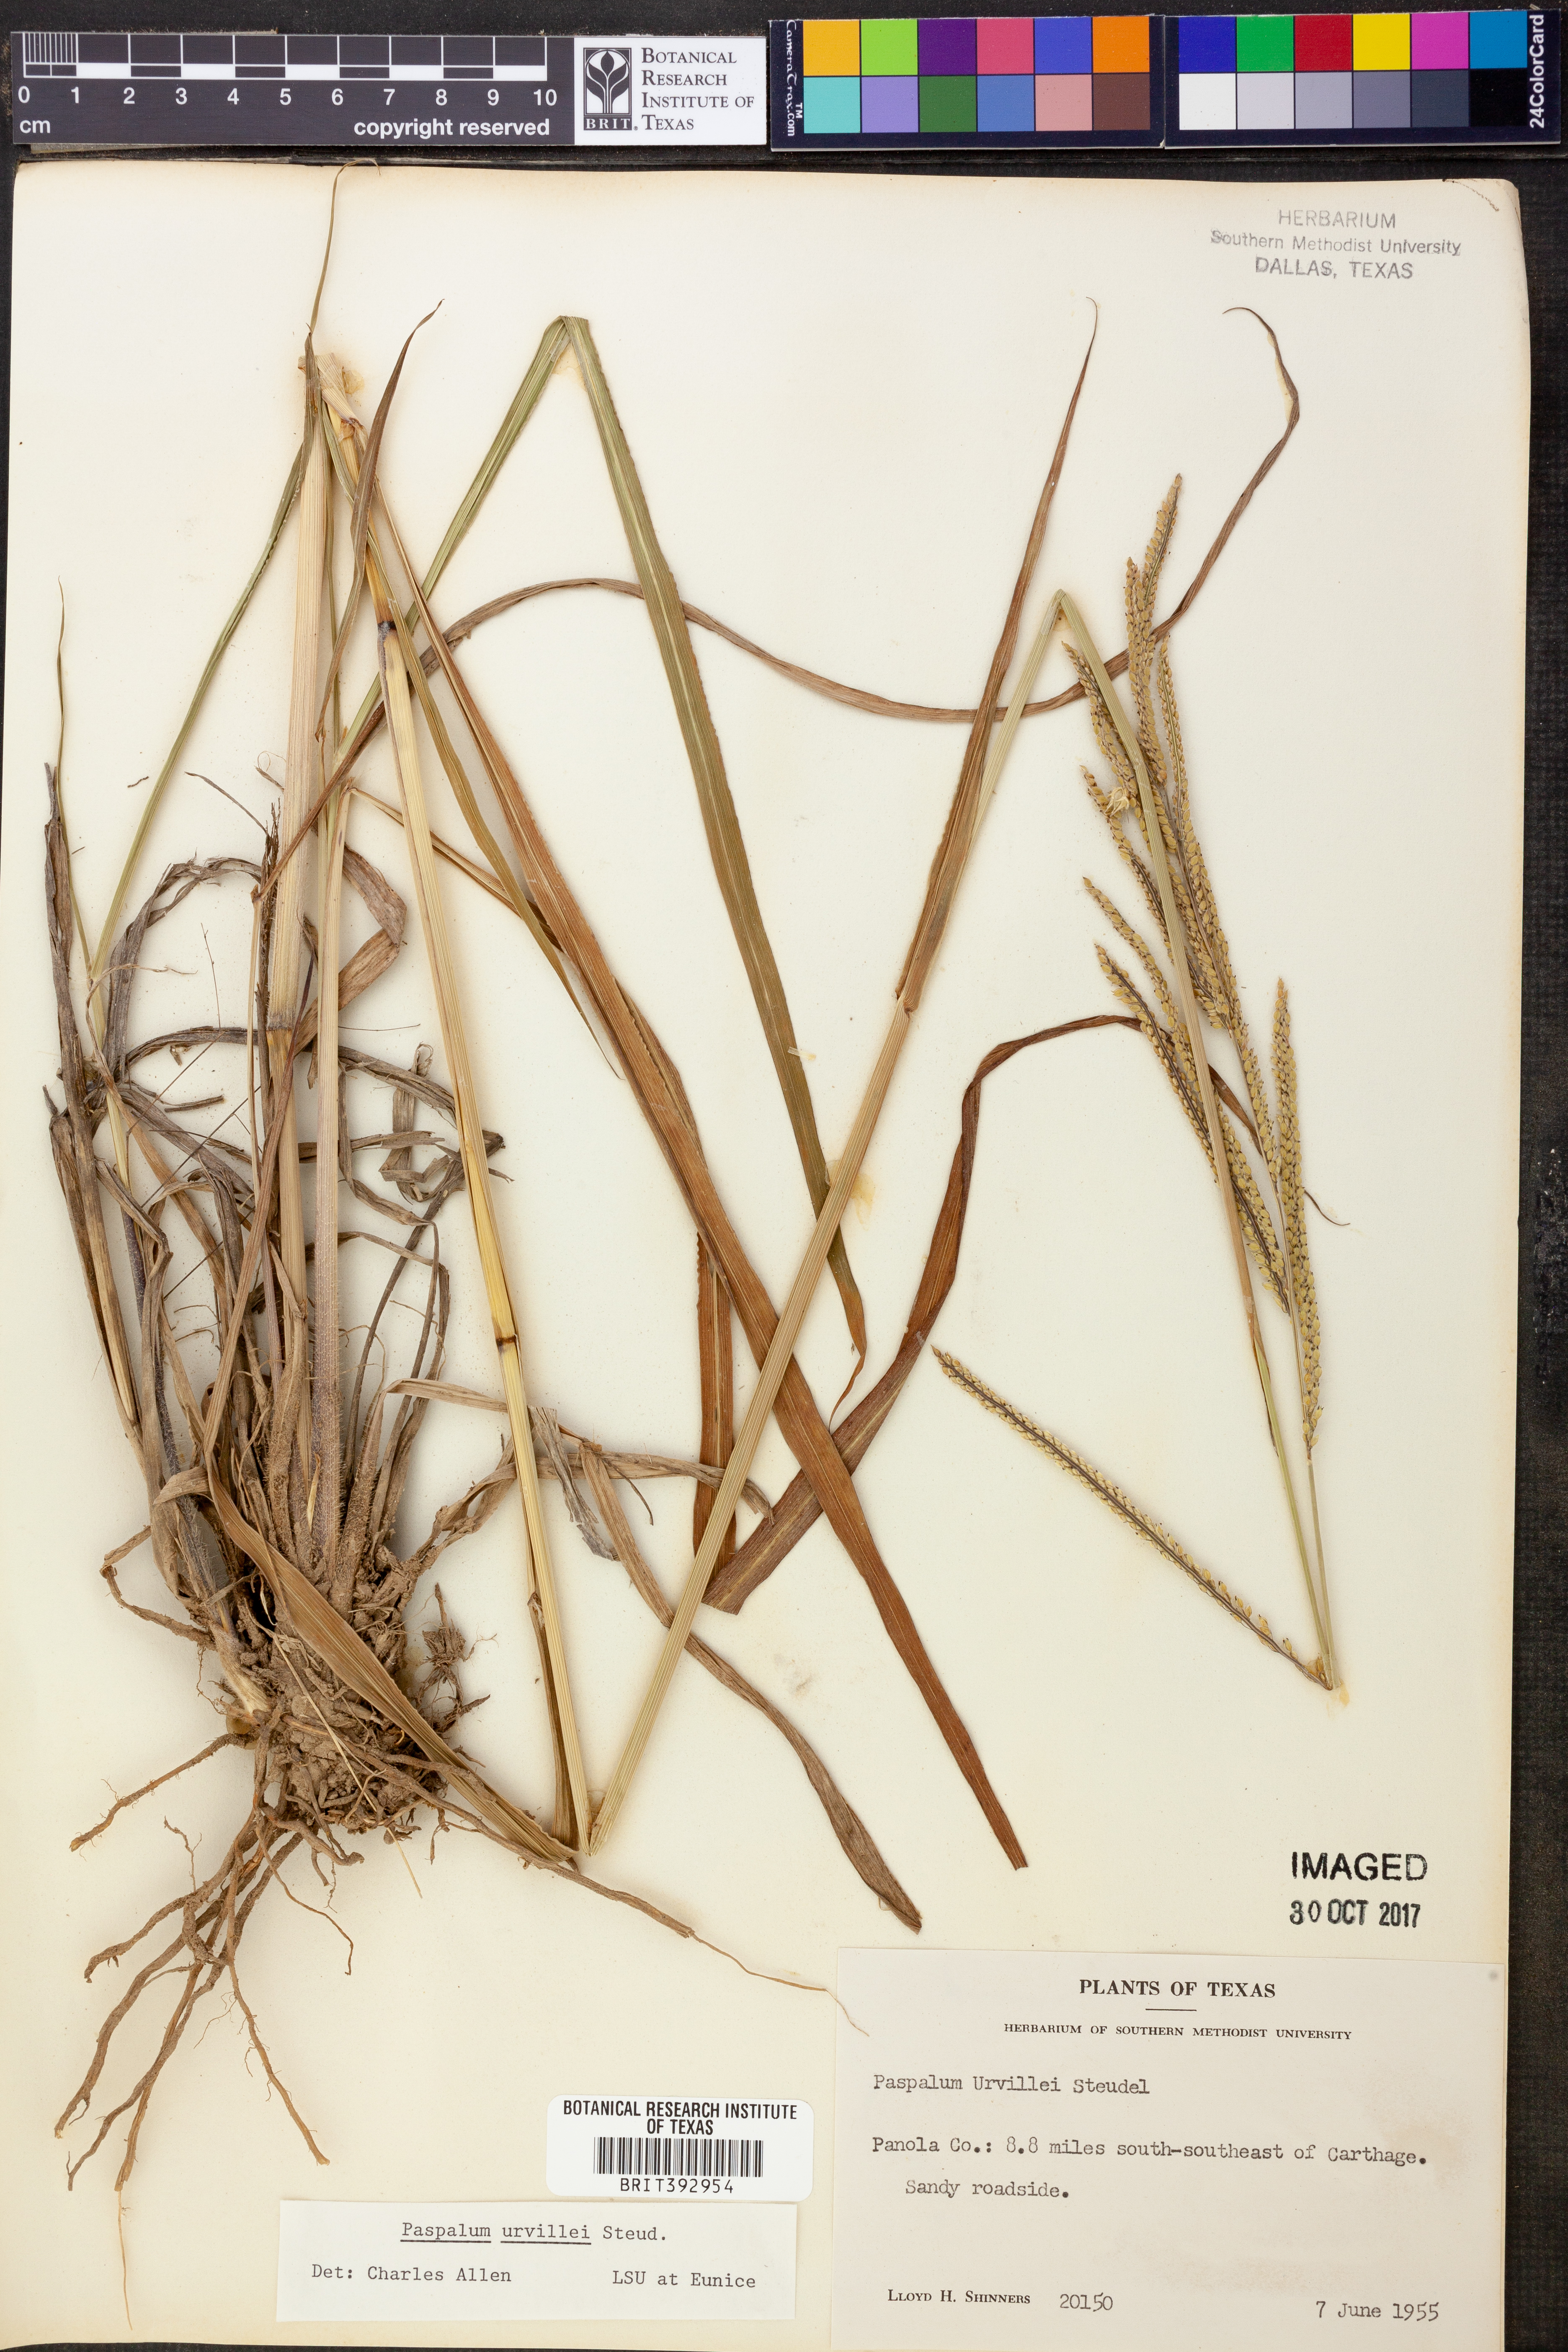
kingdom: Plantae
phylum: Tracheophyta
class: Liliopsida
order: Poales
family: Poaceae
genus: Paspalum
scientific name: Paspalum urvillei
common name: Vasey's grass
